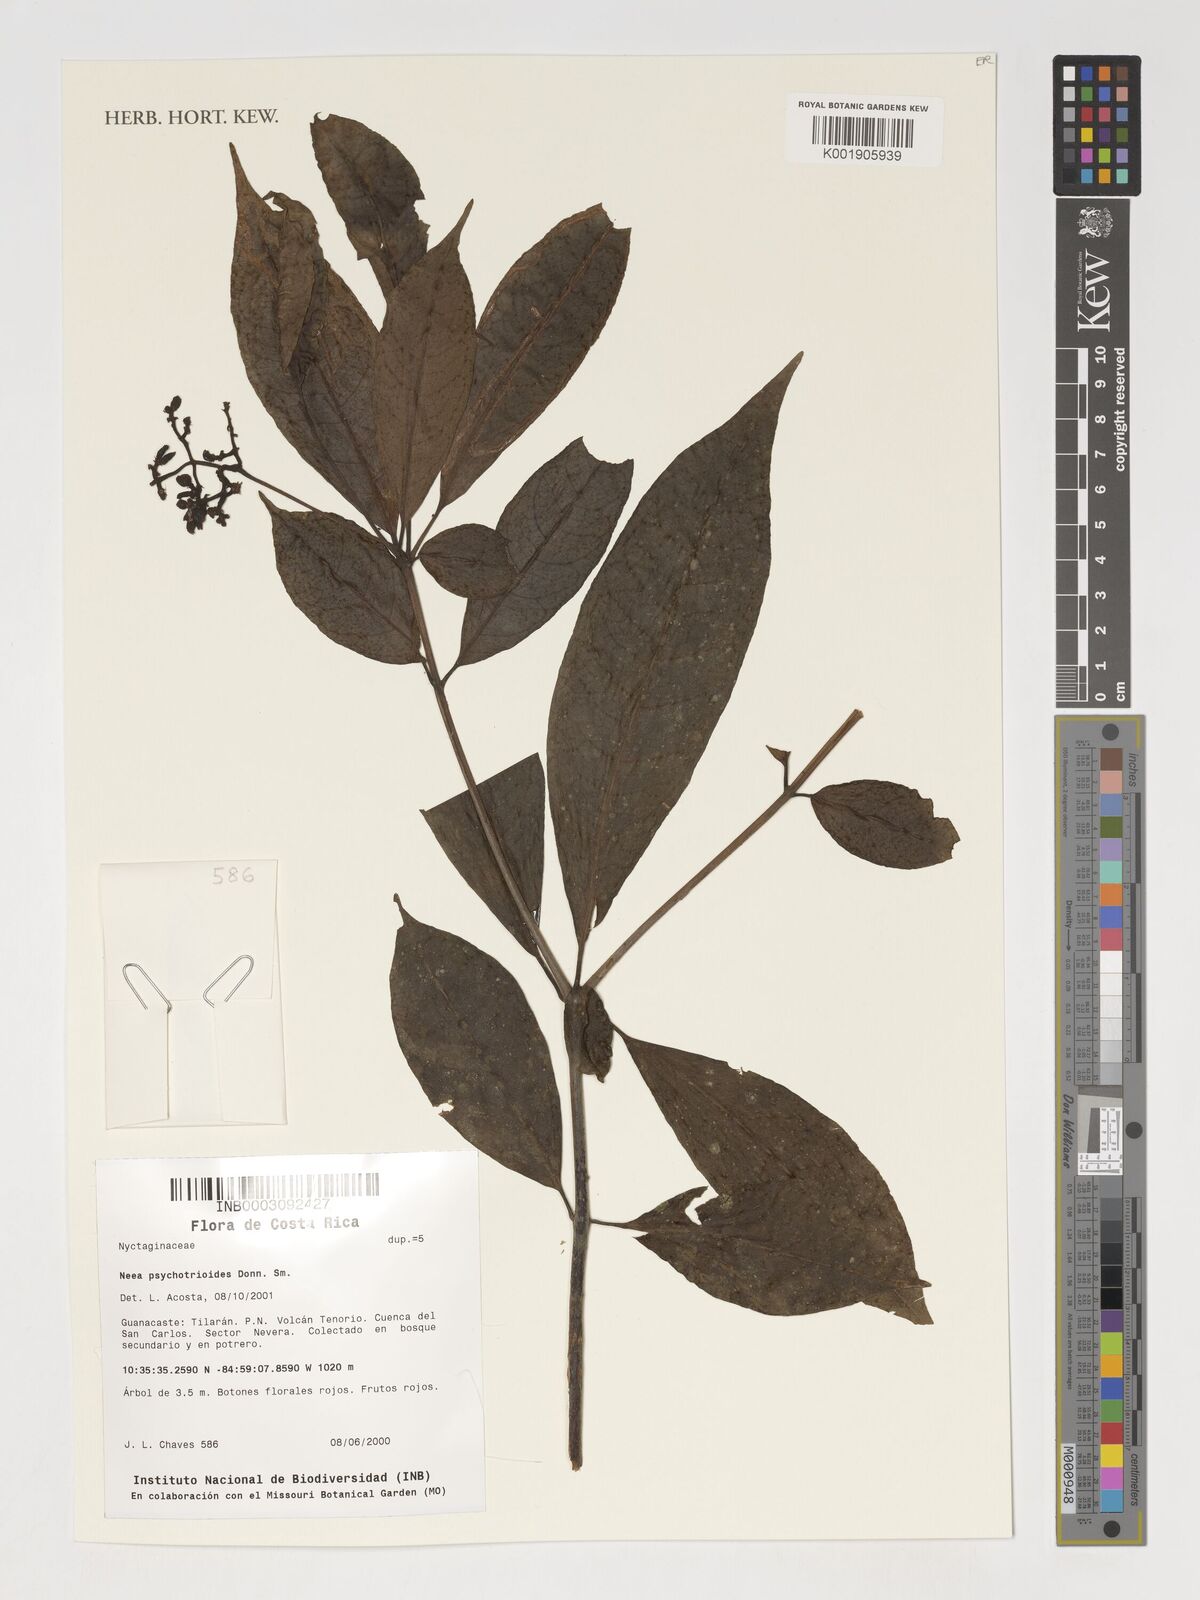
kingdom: Plantae
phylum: Tracheophyta
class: Magnoliopsida
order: Caryophyllales
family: Nyctaginaceae
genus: Neea
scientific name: Neea psychotrioides
